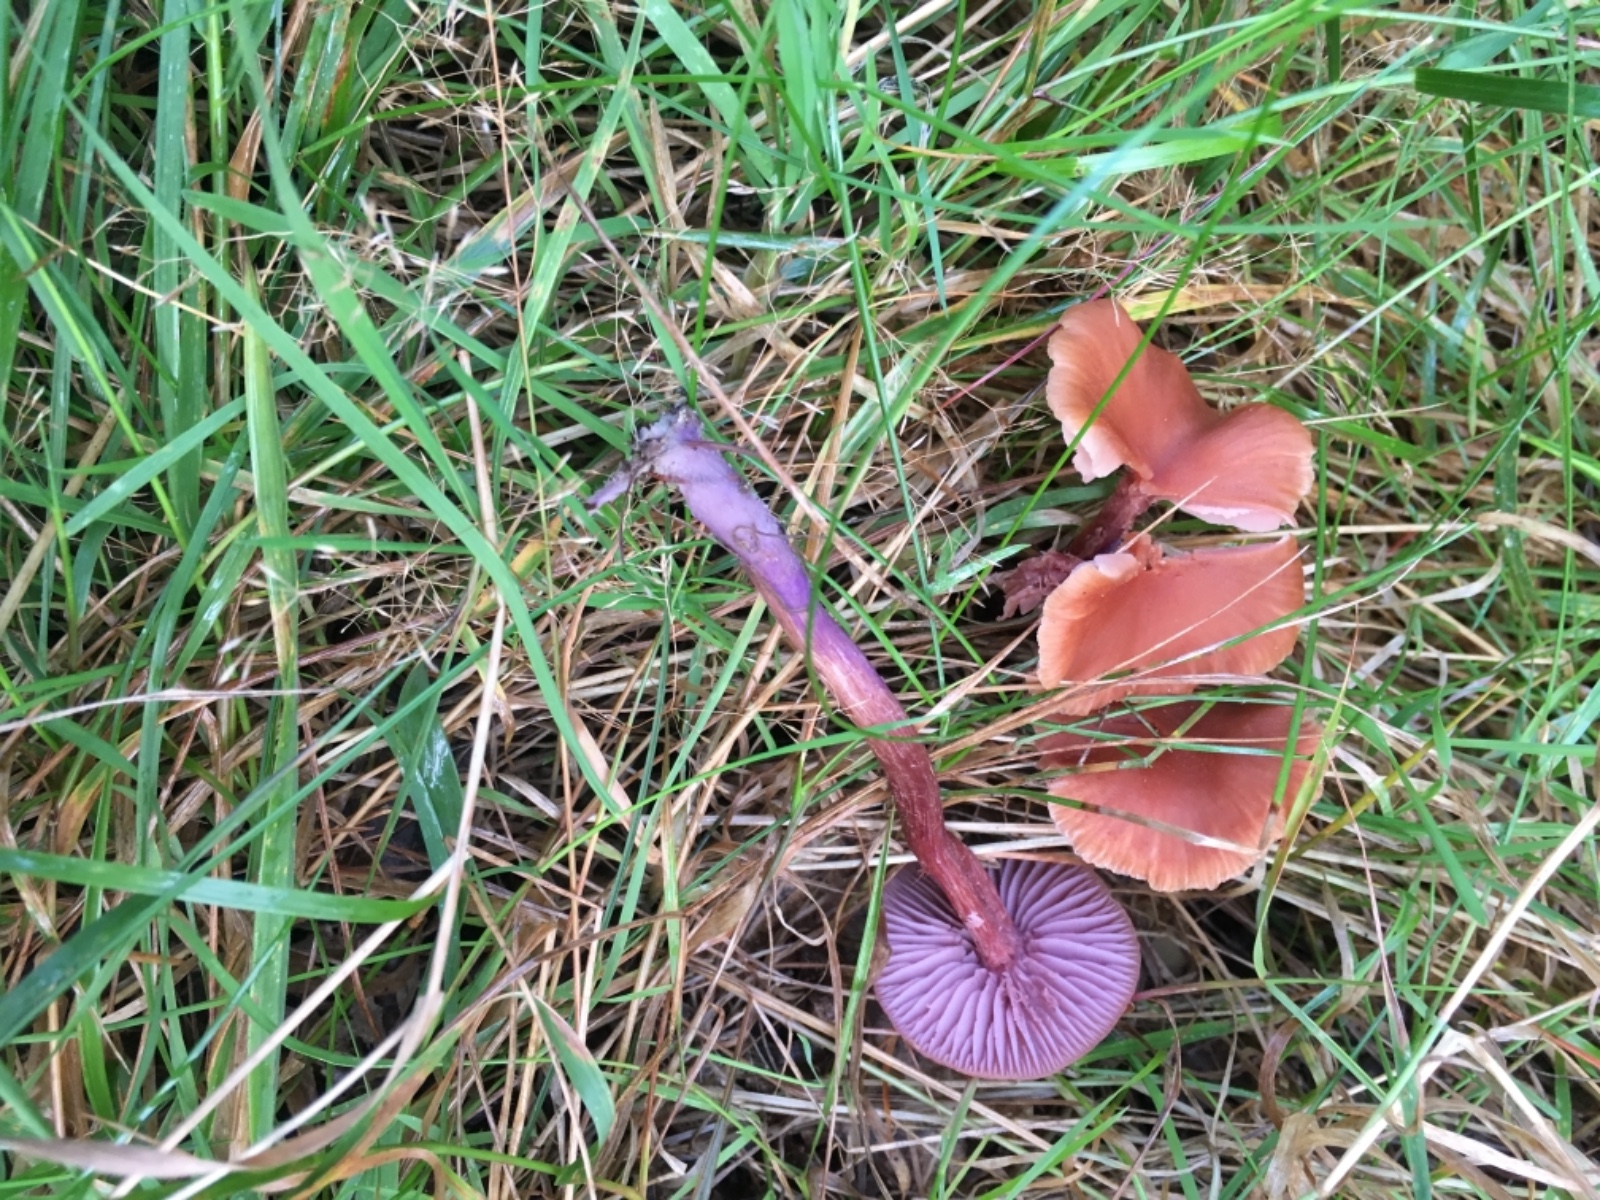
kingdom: Fungi
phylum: Basidiomycota
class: Agaricomycetes
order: Agaricales
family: Hydnangiaceae
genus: Laccaria
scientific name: Laccaria bicolor
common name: tvefarvet ametysthat
